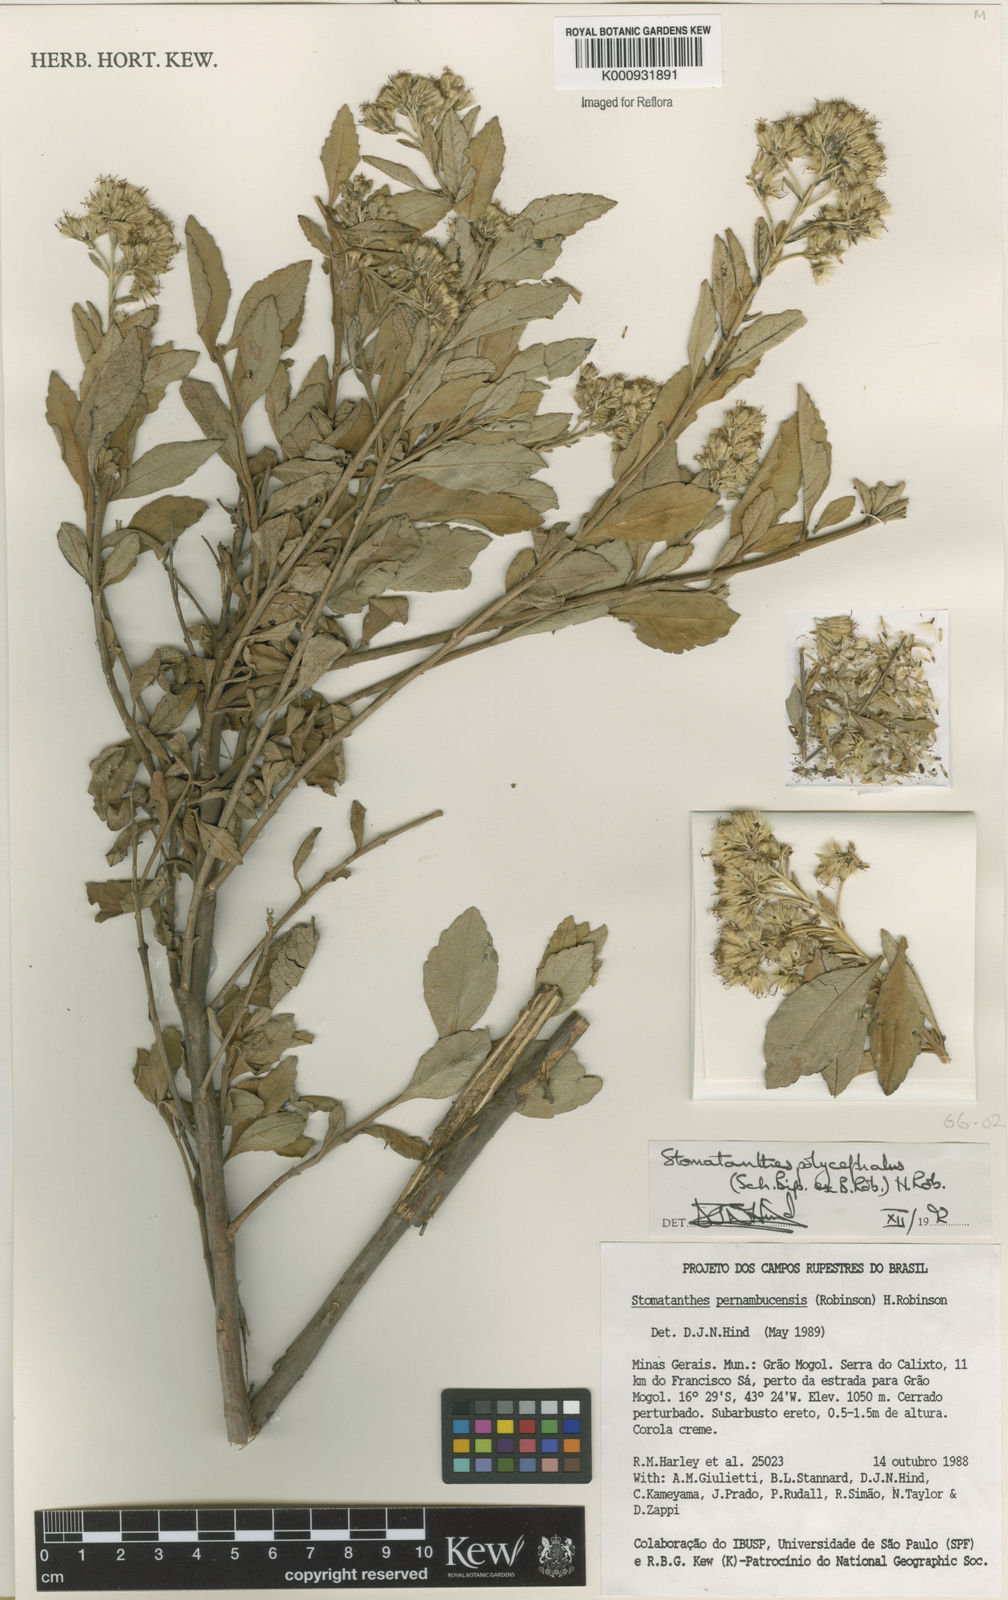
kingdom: Plantae
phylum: Tracheophyta
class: Magnoliopsida
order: Asterales
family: Asteraceae
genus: Stomatanthes
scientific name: Stomatanthes polycephalus
